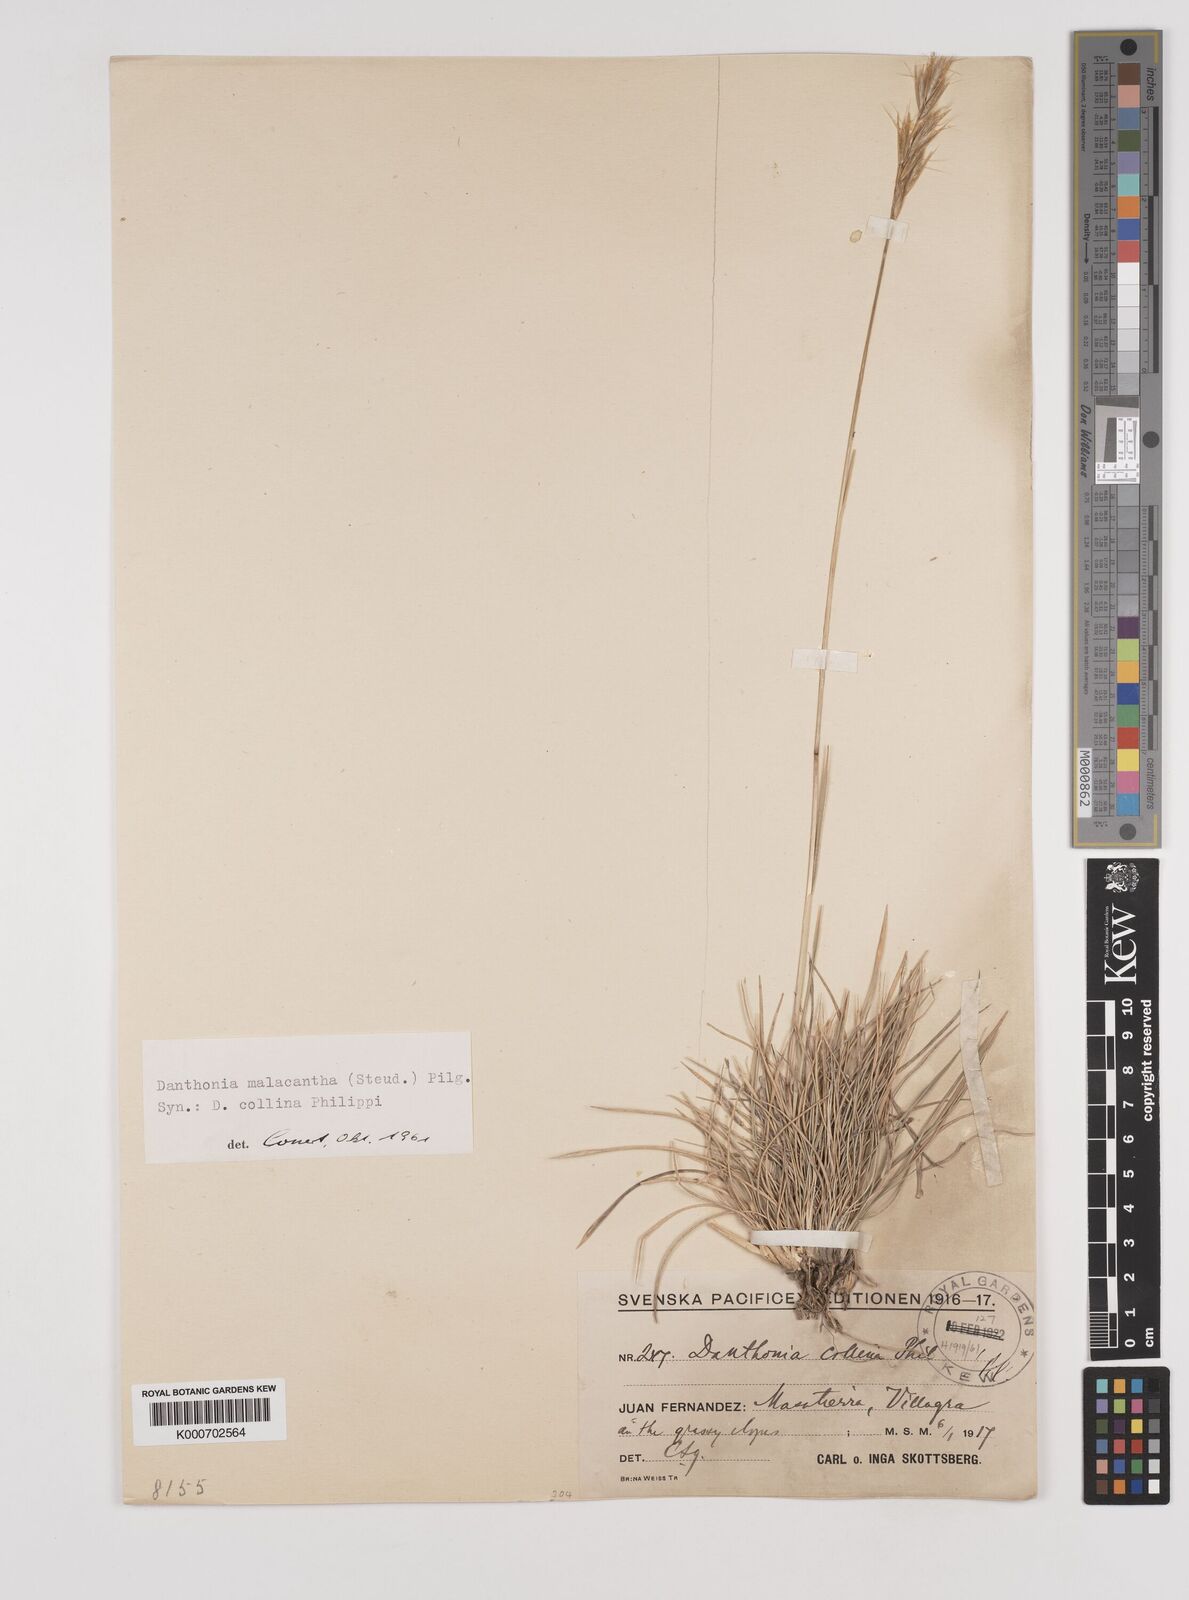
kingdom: Plantae
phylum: Tracheophyta
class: Liliopsida
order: Poales
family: Poaceae
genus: Danthonia
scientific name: Danthonia malacantha
